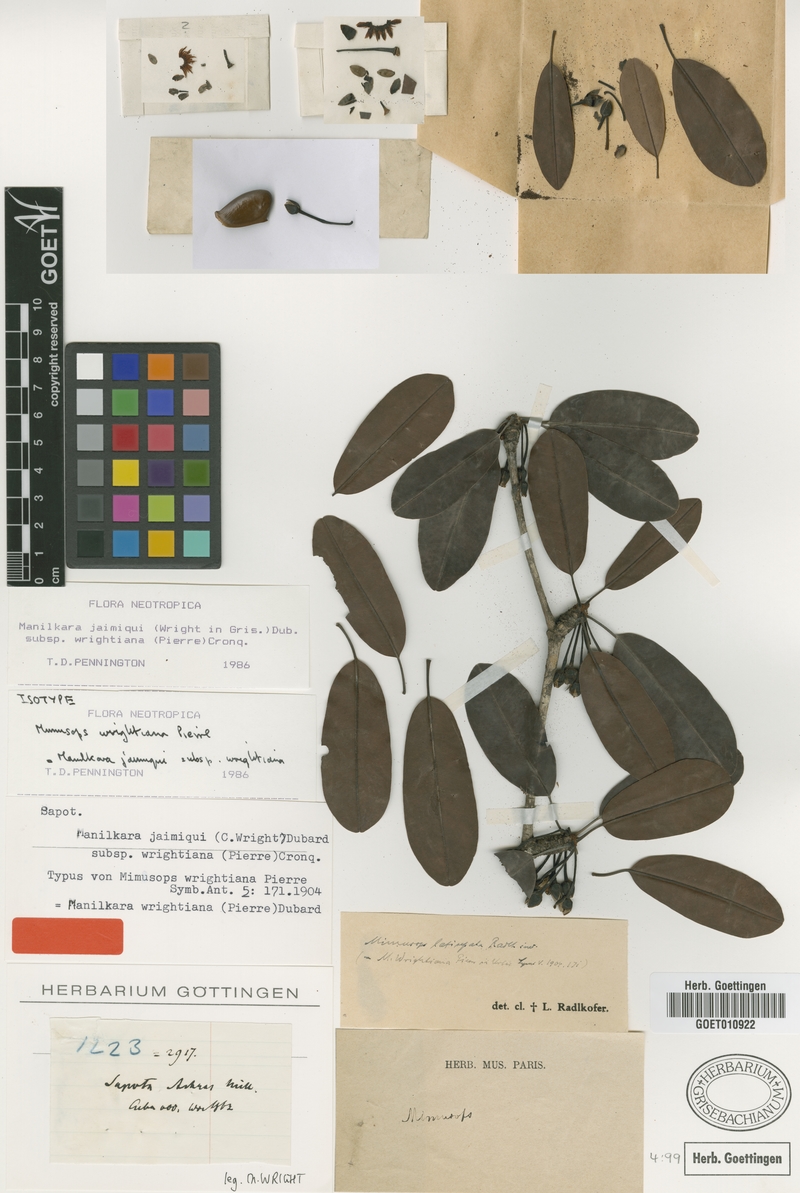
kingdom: Plantae
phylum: Tracheophyta
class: Magnoliopsida
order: Ericales
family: Sapotaceae
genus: Manilkara
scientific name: Manilkara jaimiqui
